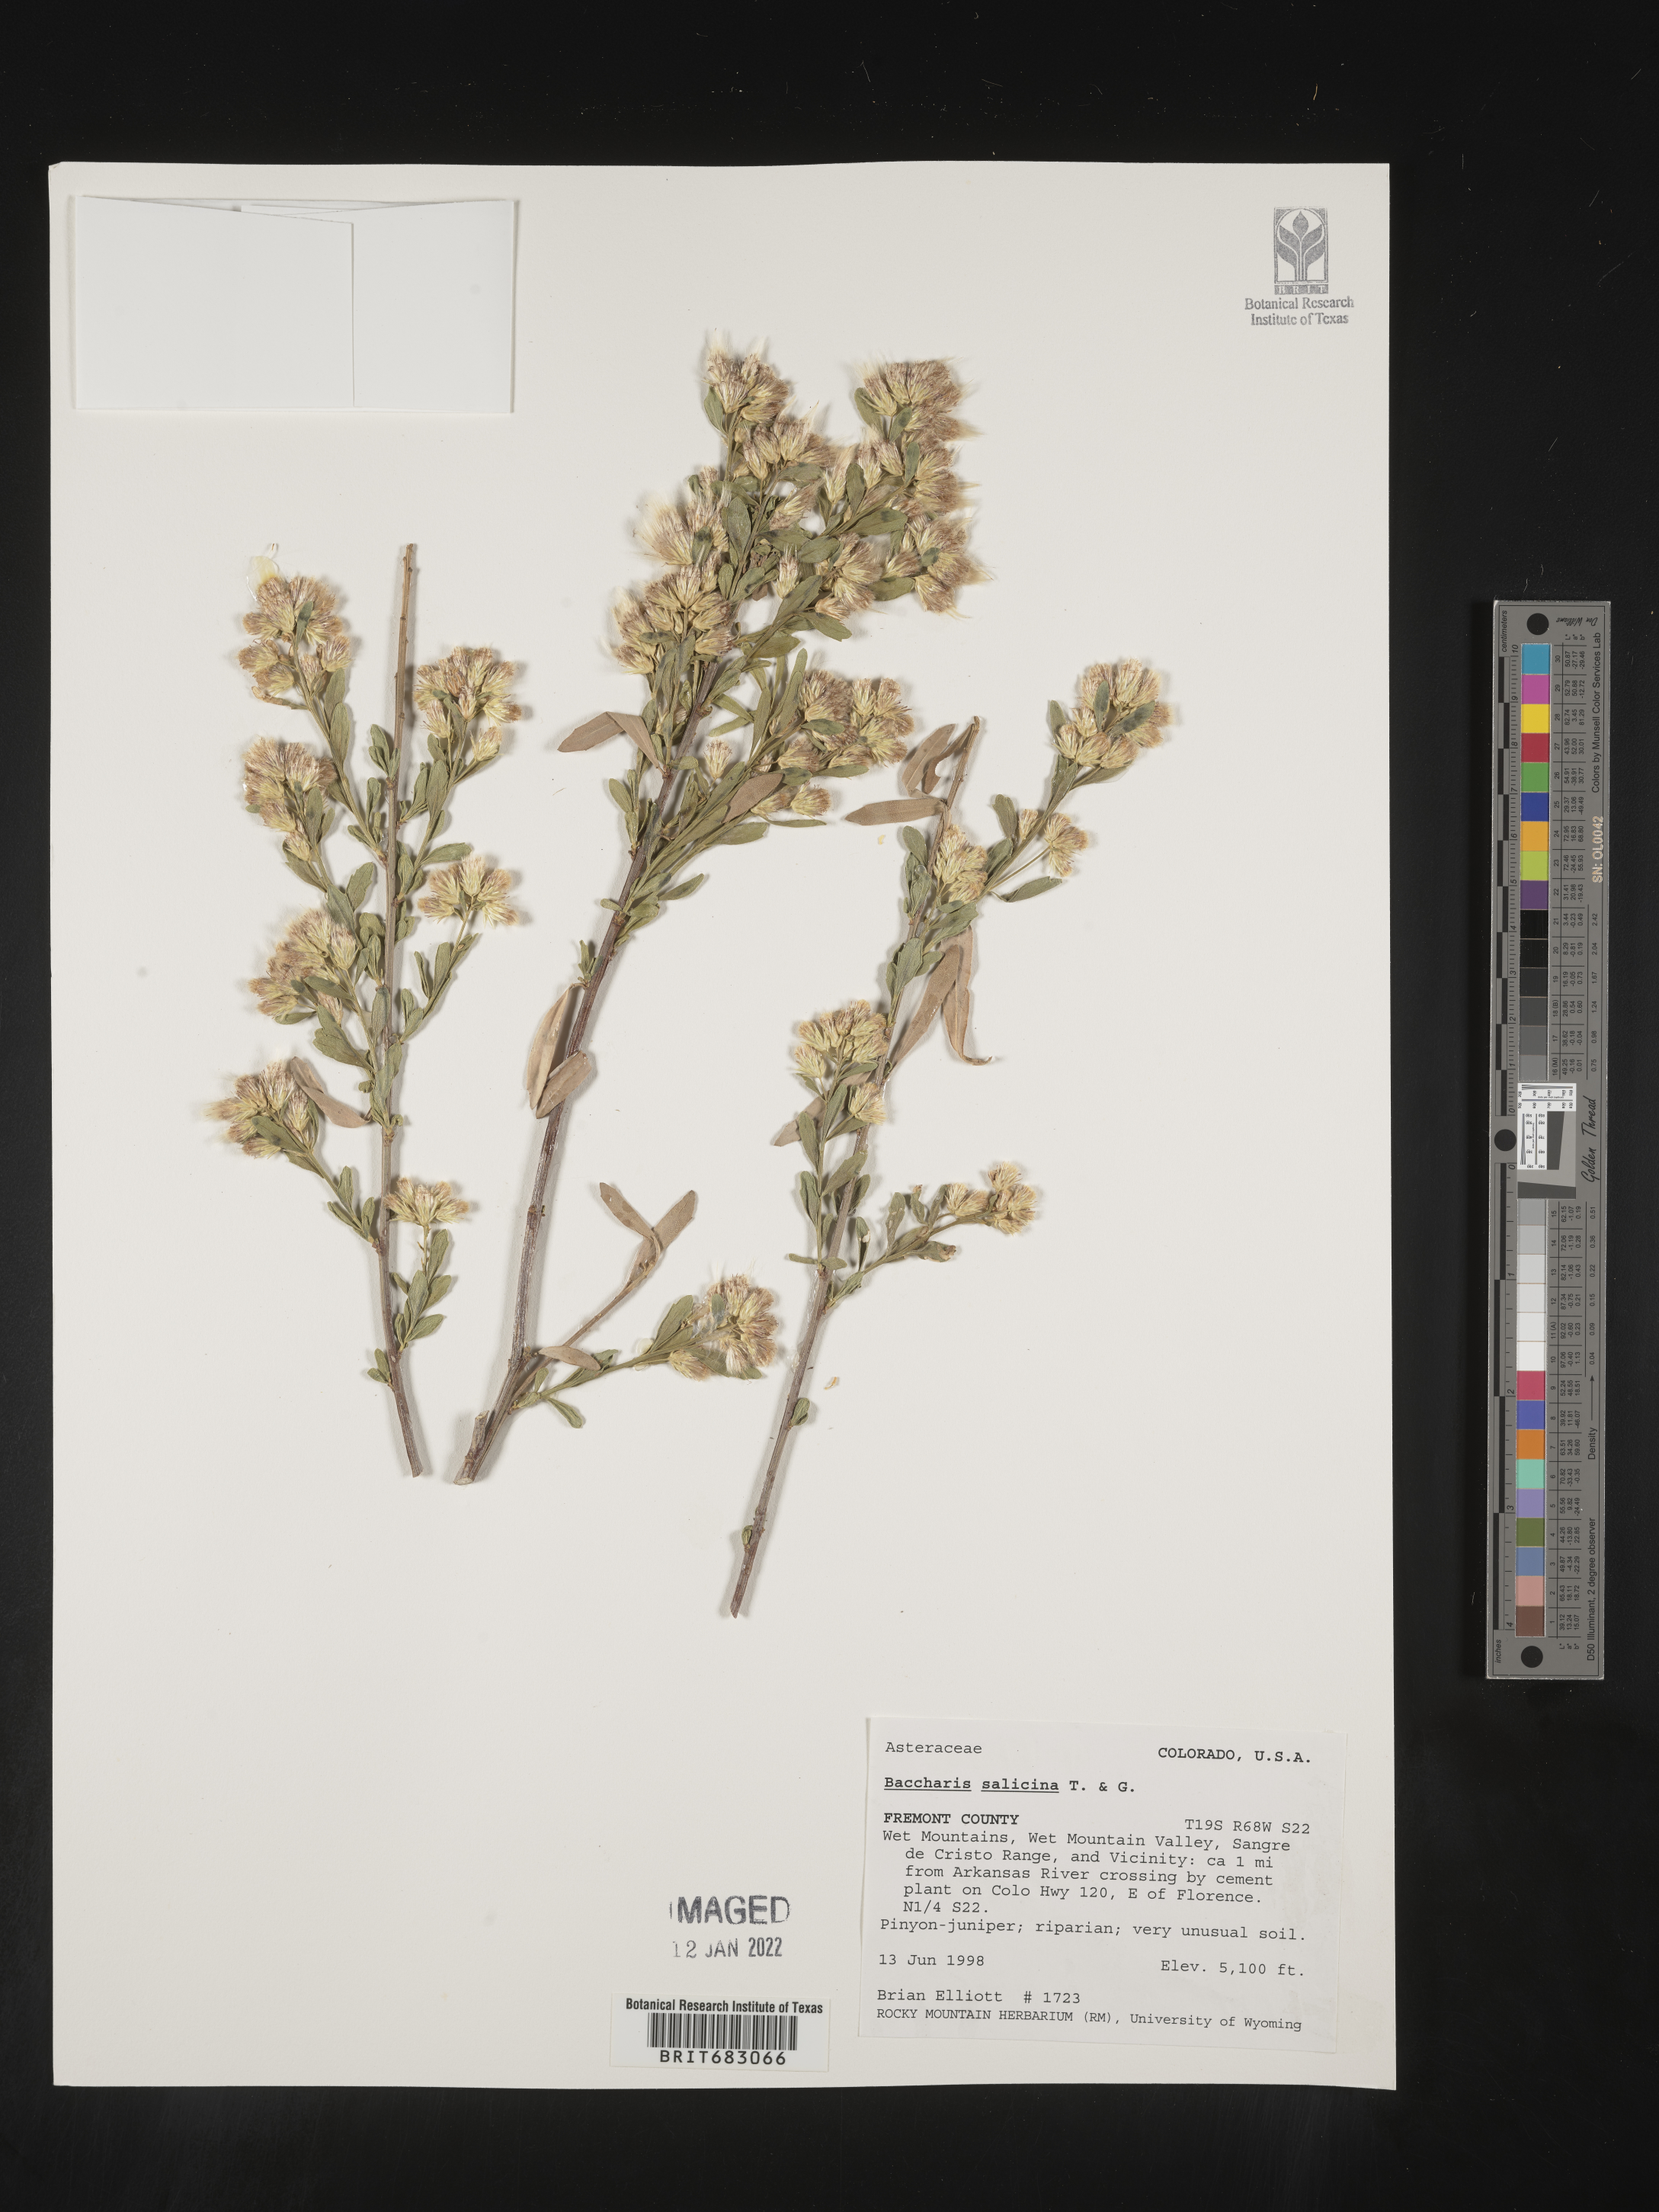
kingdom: Plantae
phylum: Tracheophyta
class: Magnoliopsida
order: Asterales
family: Asteraceae
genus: Baccharis
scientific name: Baccharis salicina
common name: Willow baccharis
